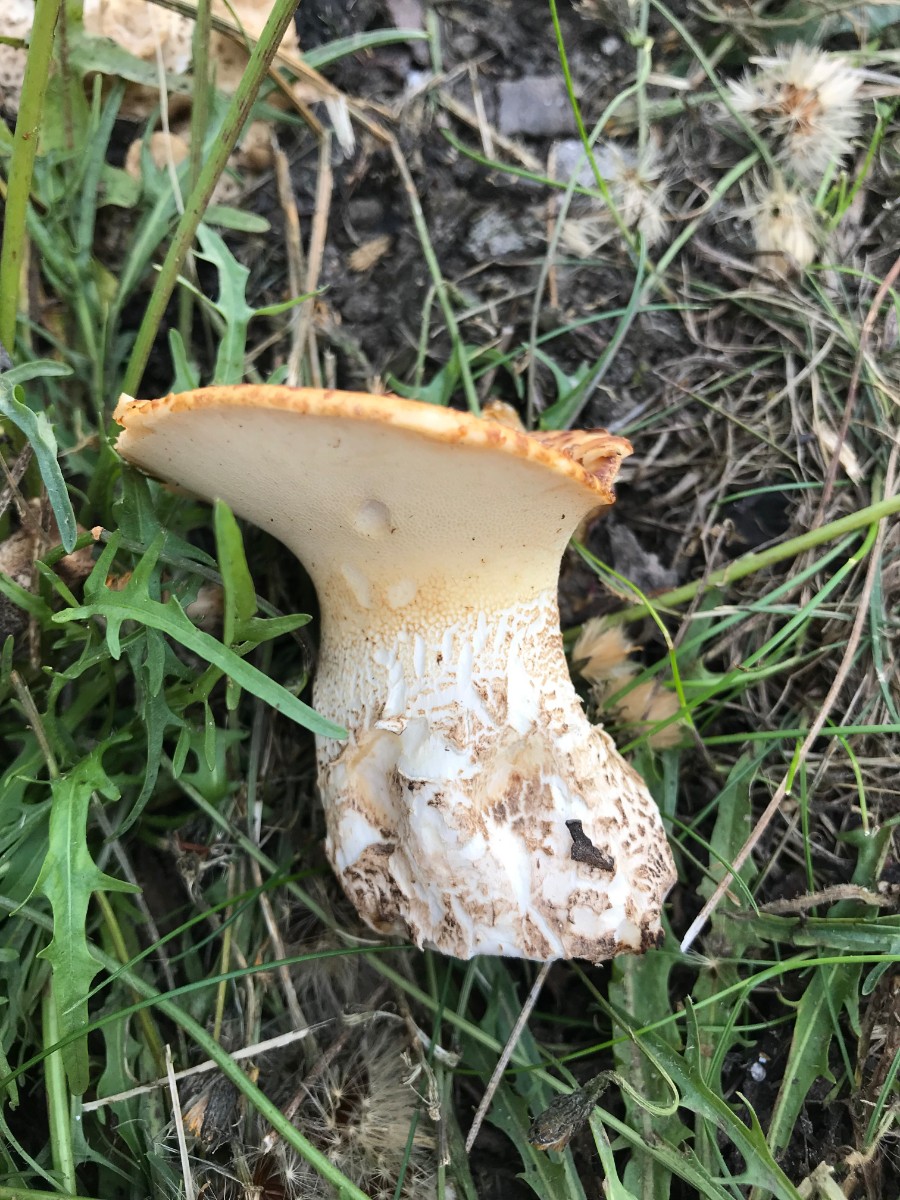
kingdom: Fungi
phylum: Basidiomycota
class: Agaricomycetes
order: Polyporales
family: Polyporaceae
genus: Cerioporus
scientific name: Cerioporus squamosus
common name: skællet stilkporesvamp
